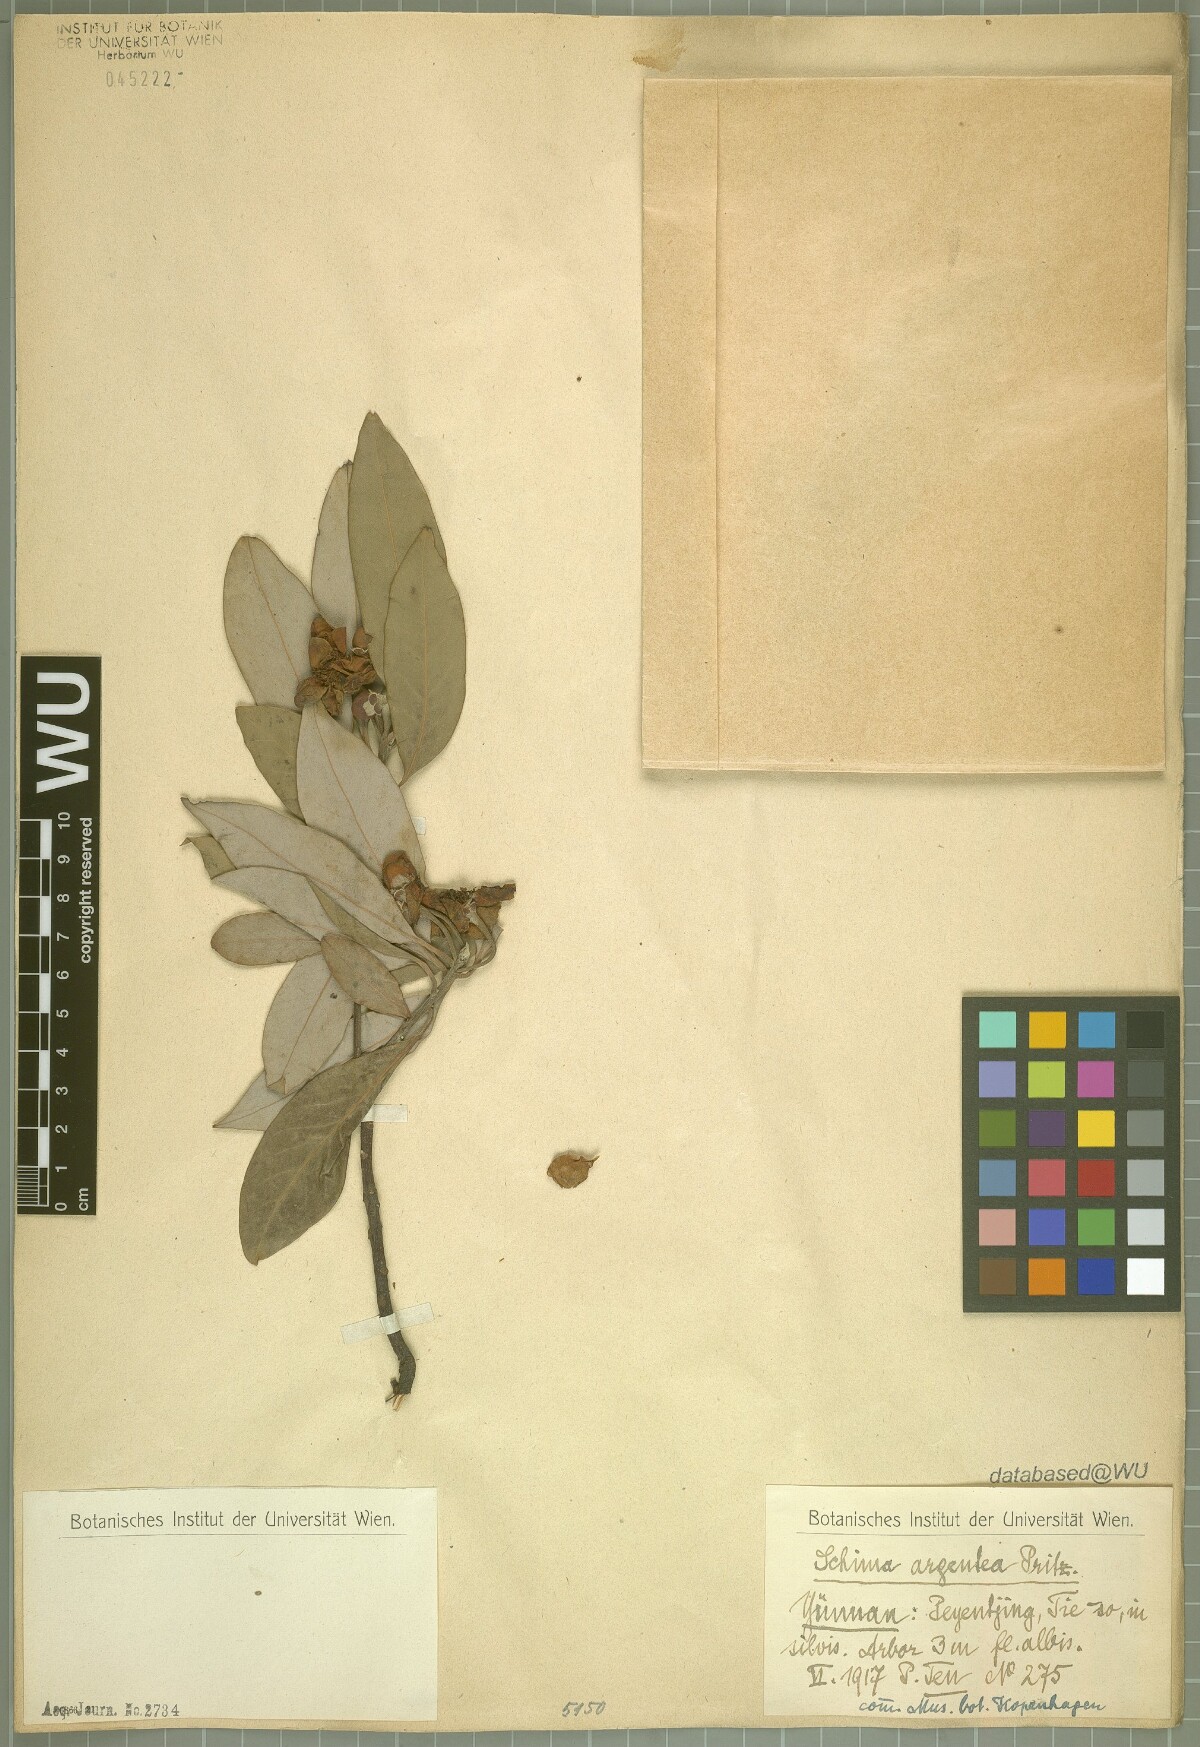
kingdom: Plantae
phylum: Tracheophyta
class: Magnoliopsida
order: Ericales
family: Theaceae
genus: Schima
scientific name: Schima argentea
